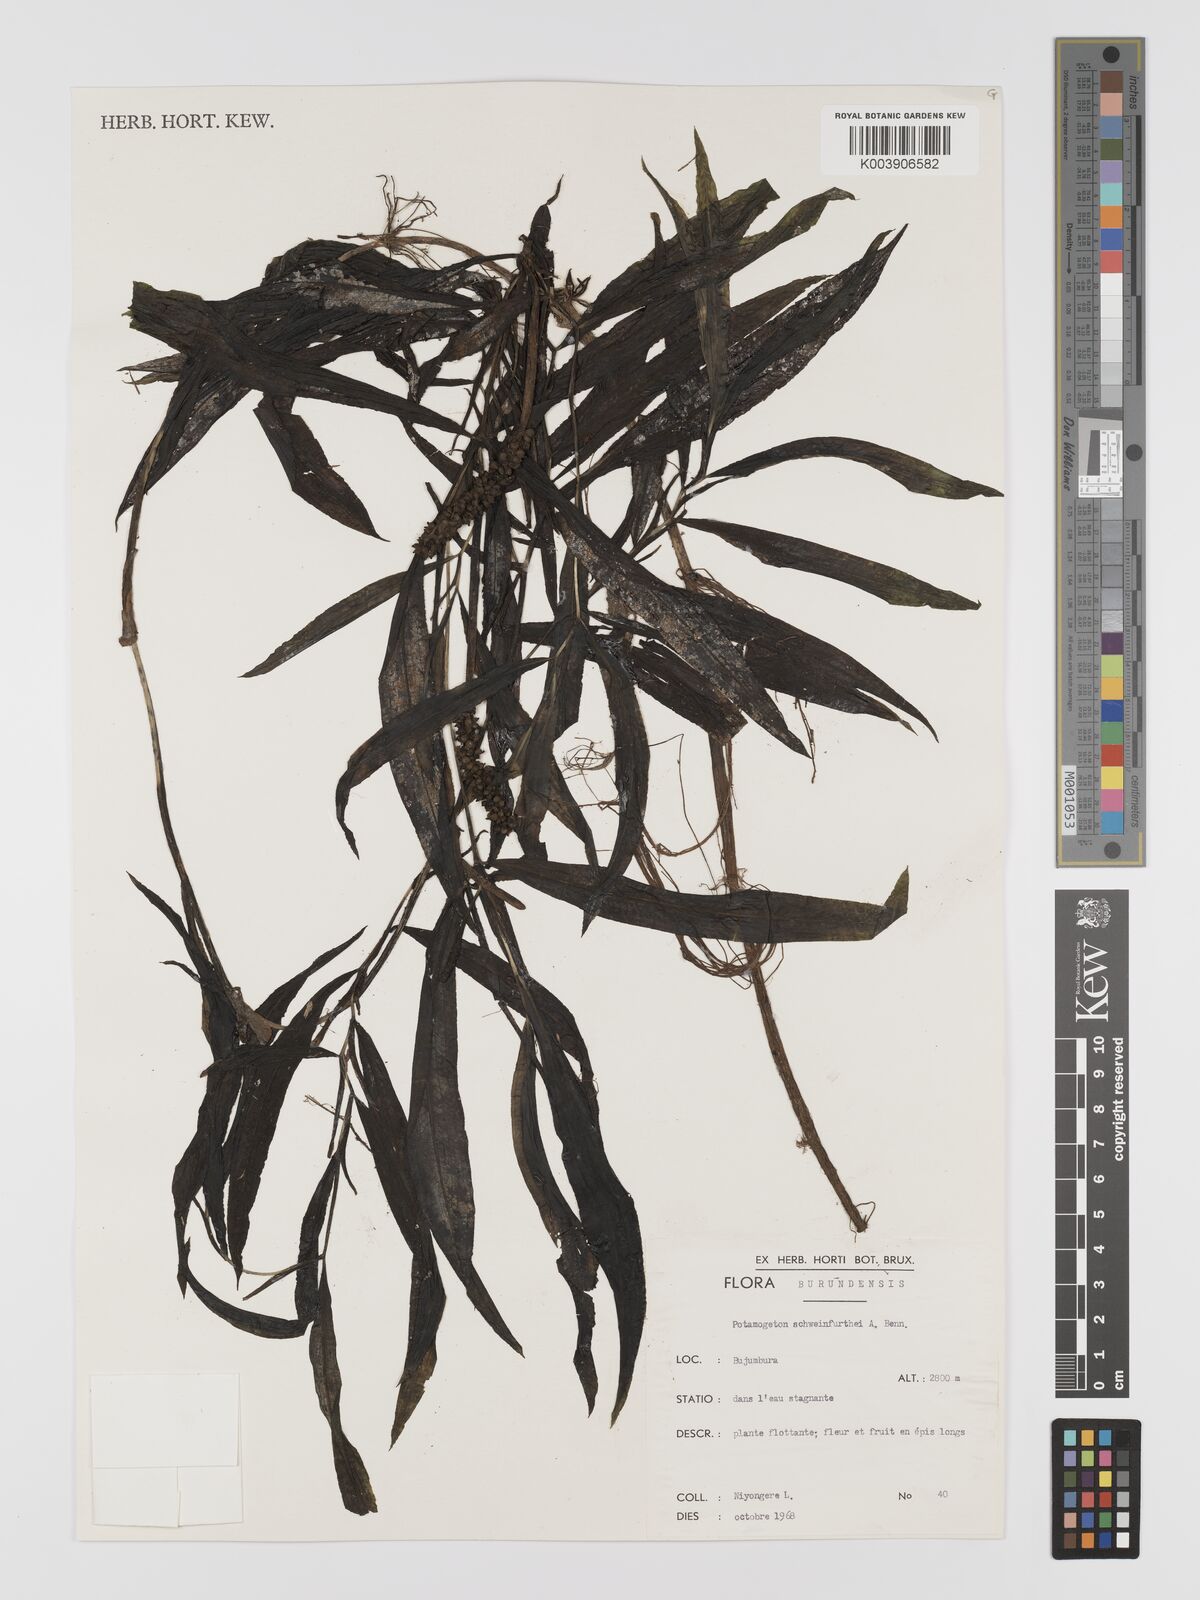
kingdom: Plantae
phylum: Tracheophyta
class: Liliopsida
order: Alismatales
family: Potamogetonaceae
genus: Potamogeton
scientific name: Potamogeton schweinfurthii
